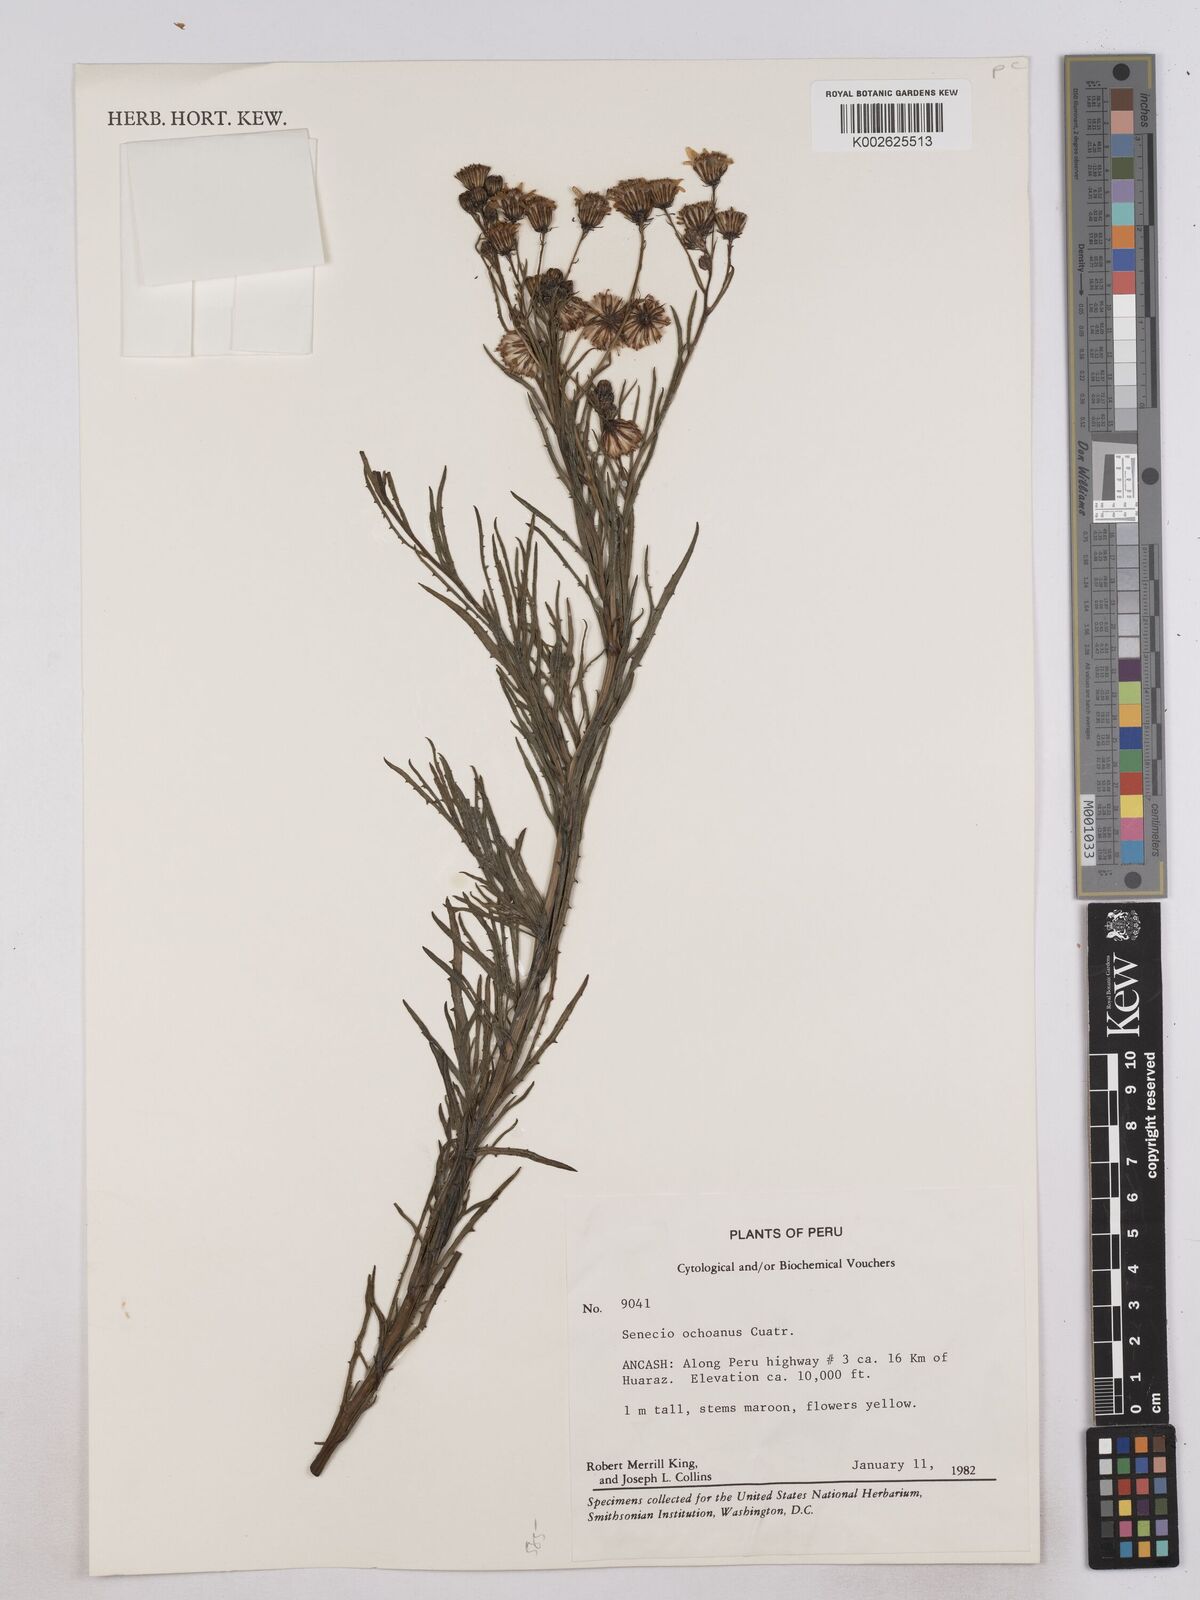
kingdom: Plantae
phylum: Tracheophyta
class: Magnoliopsida
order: Asterales
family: Asteraceae
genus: Senecio
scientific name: Senecio ochoanus
